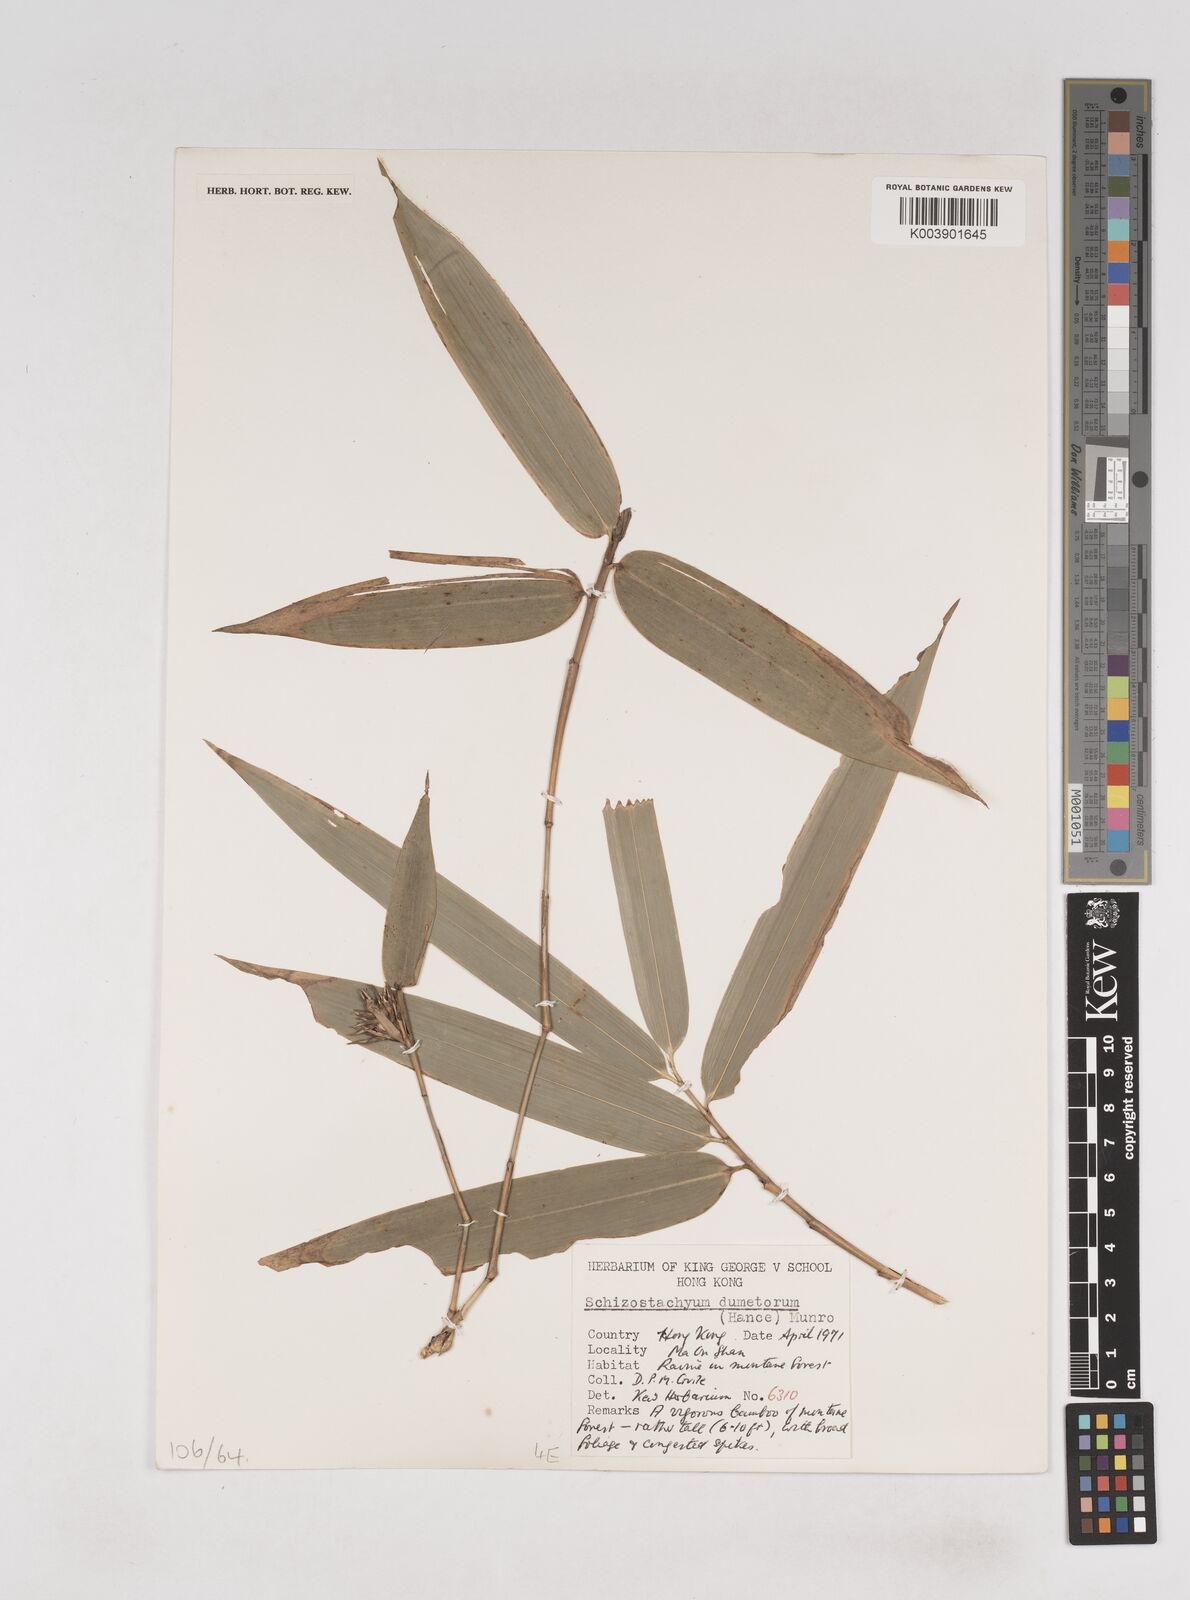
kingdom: Plantae
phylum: Tracheophyta
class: Liliopsida
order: Poales
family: Poaceae
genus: Schizostachyum
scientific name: Schizostachyum dumetorum
